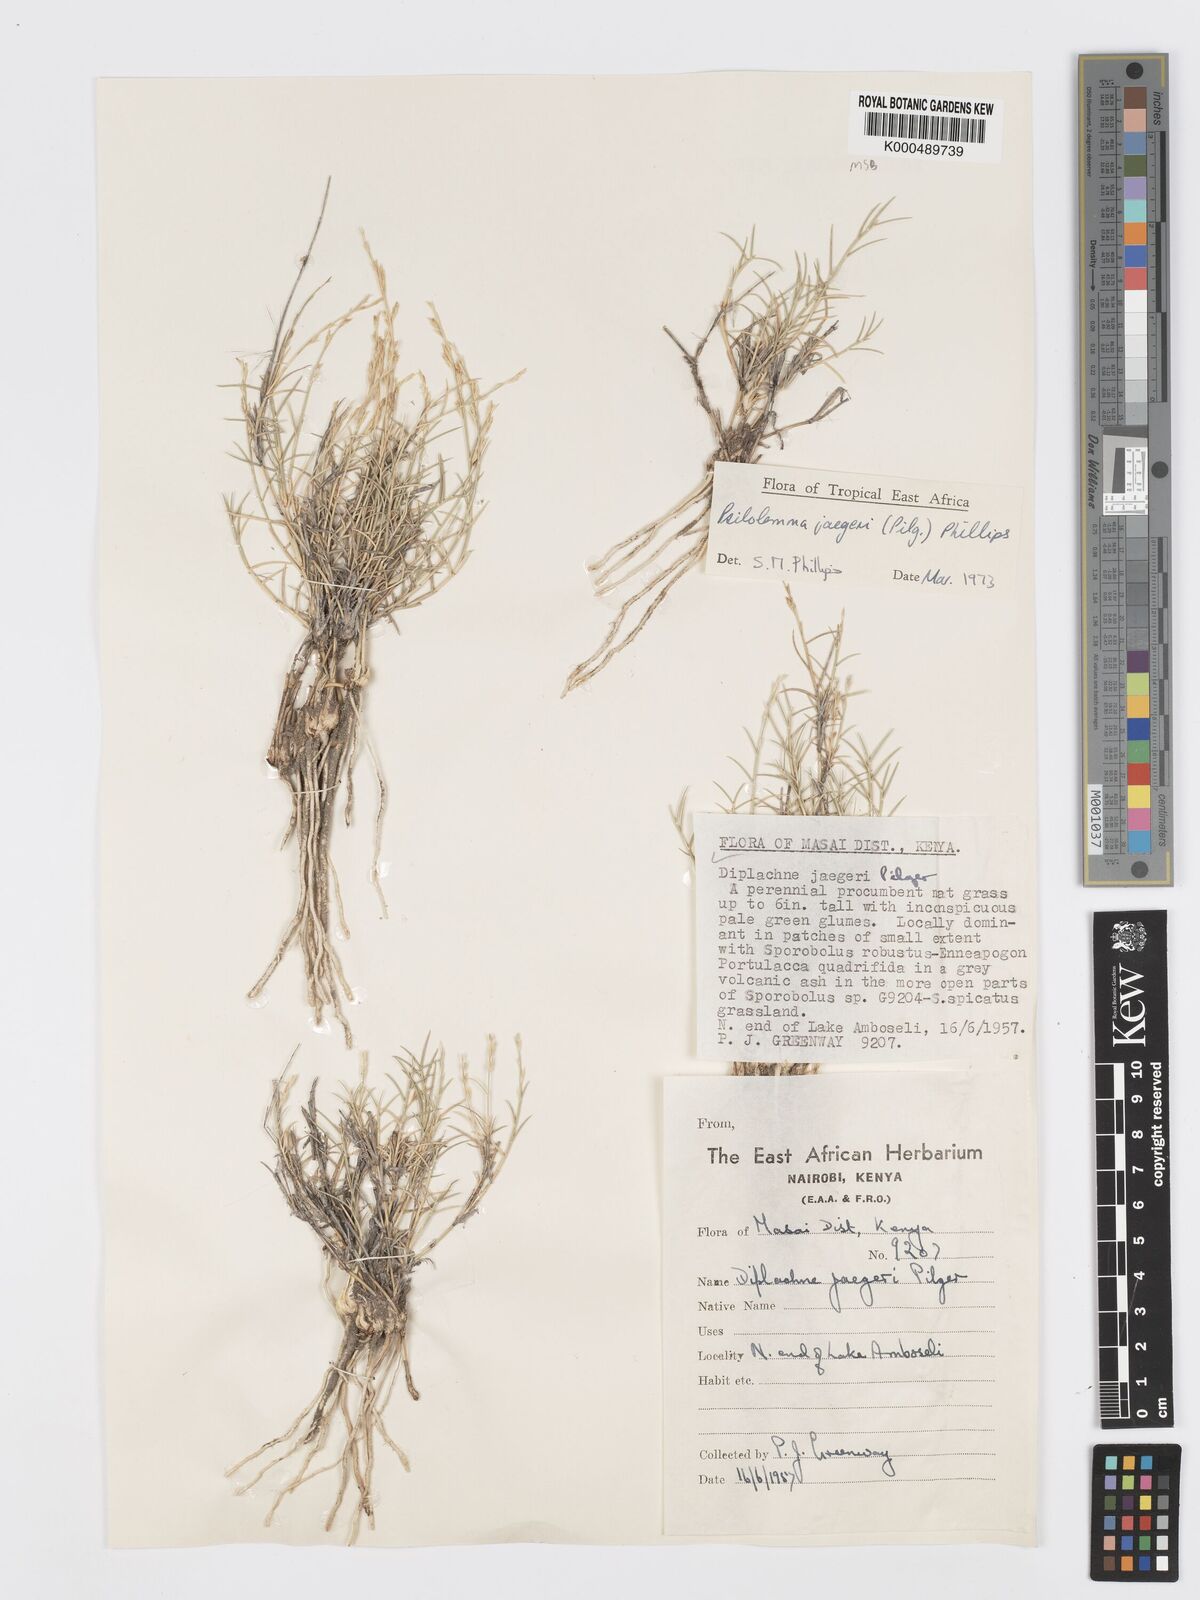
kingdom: Plantae
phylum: Tracheophyta
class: Liliopsida
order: Poales
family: Poaceae
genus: Psilolemma
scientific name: Psilolemma jaegeri
